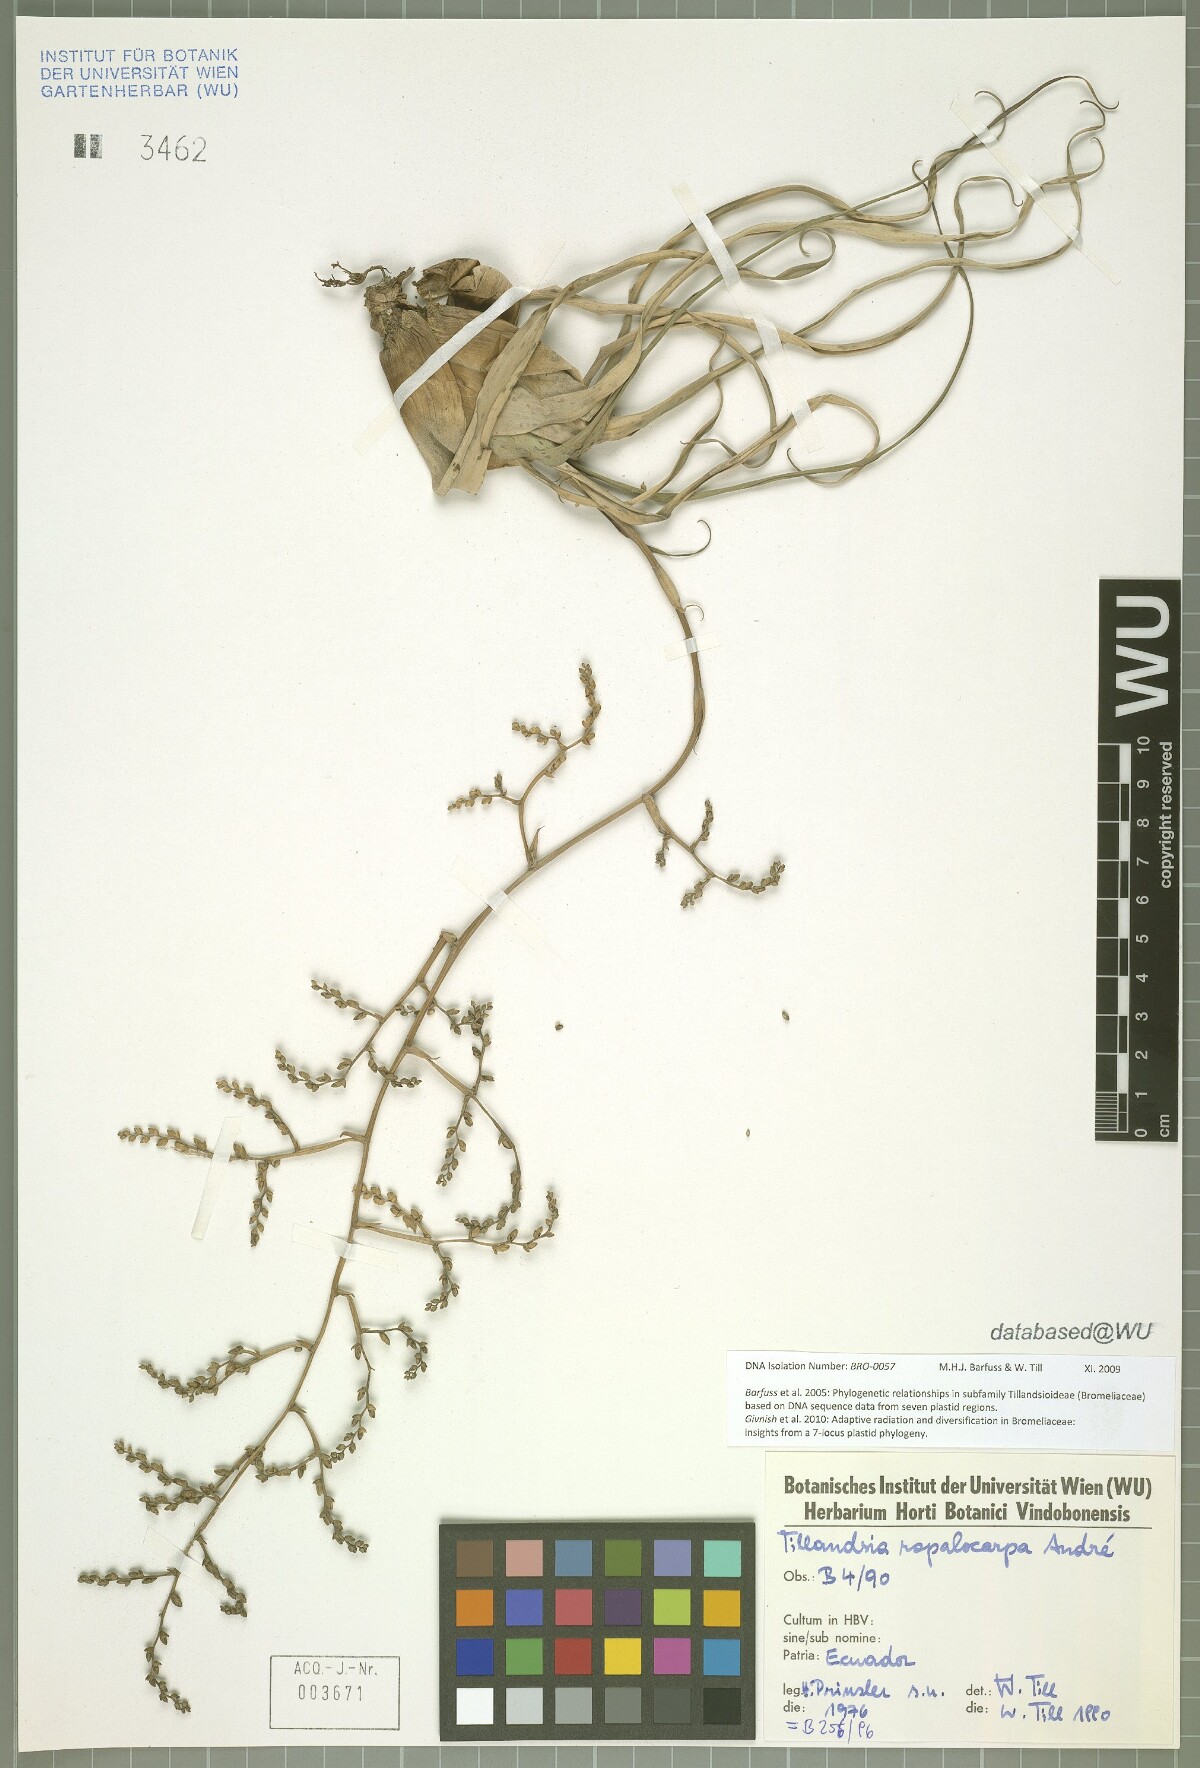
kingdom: Plantae
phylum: Tracheophyta
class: Liliopsida
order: Poales
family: Bromeliaceae
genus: Racinaea
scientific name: Racinaea ropalocarpa
